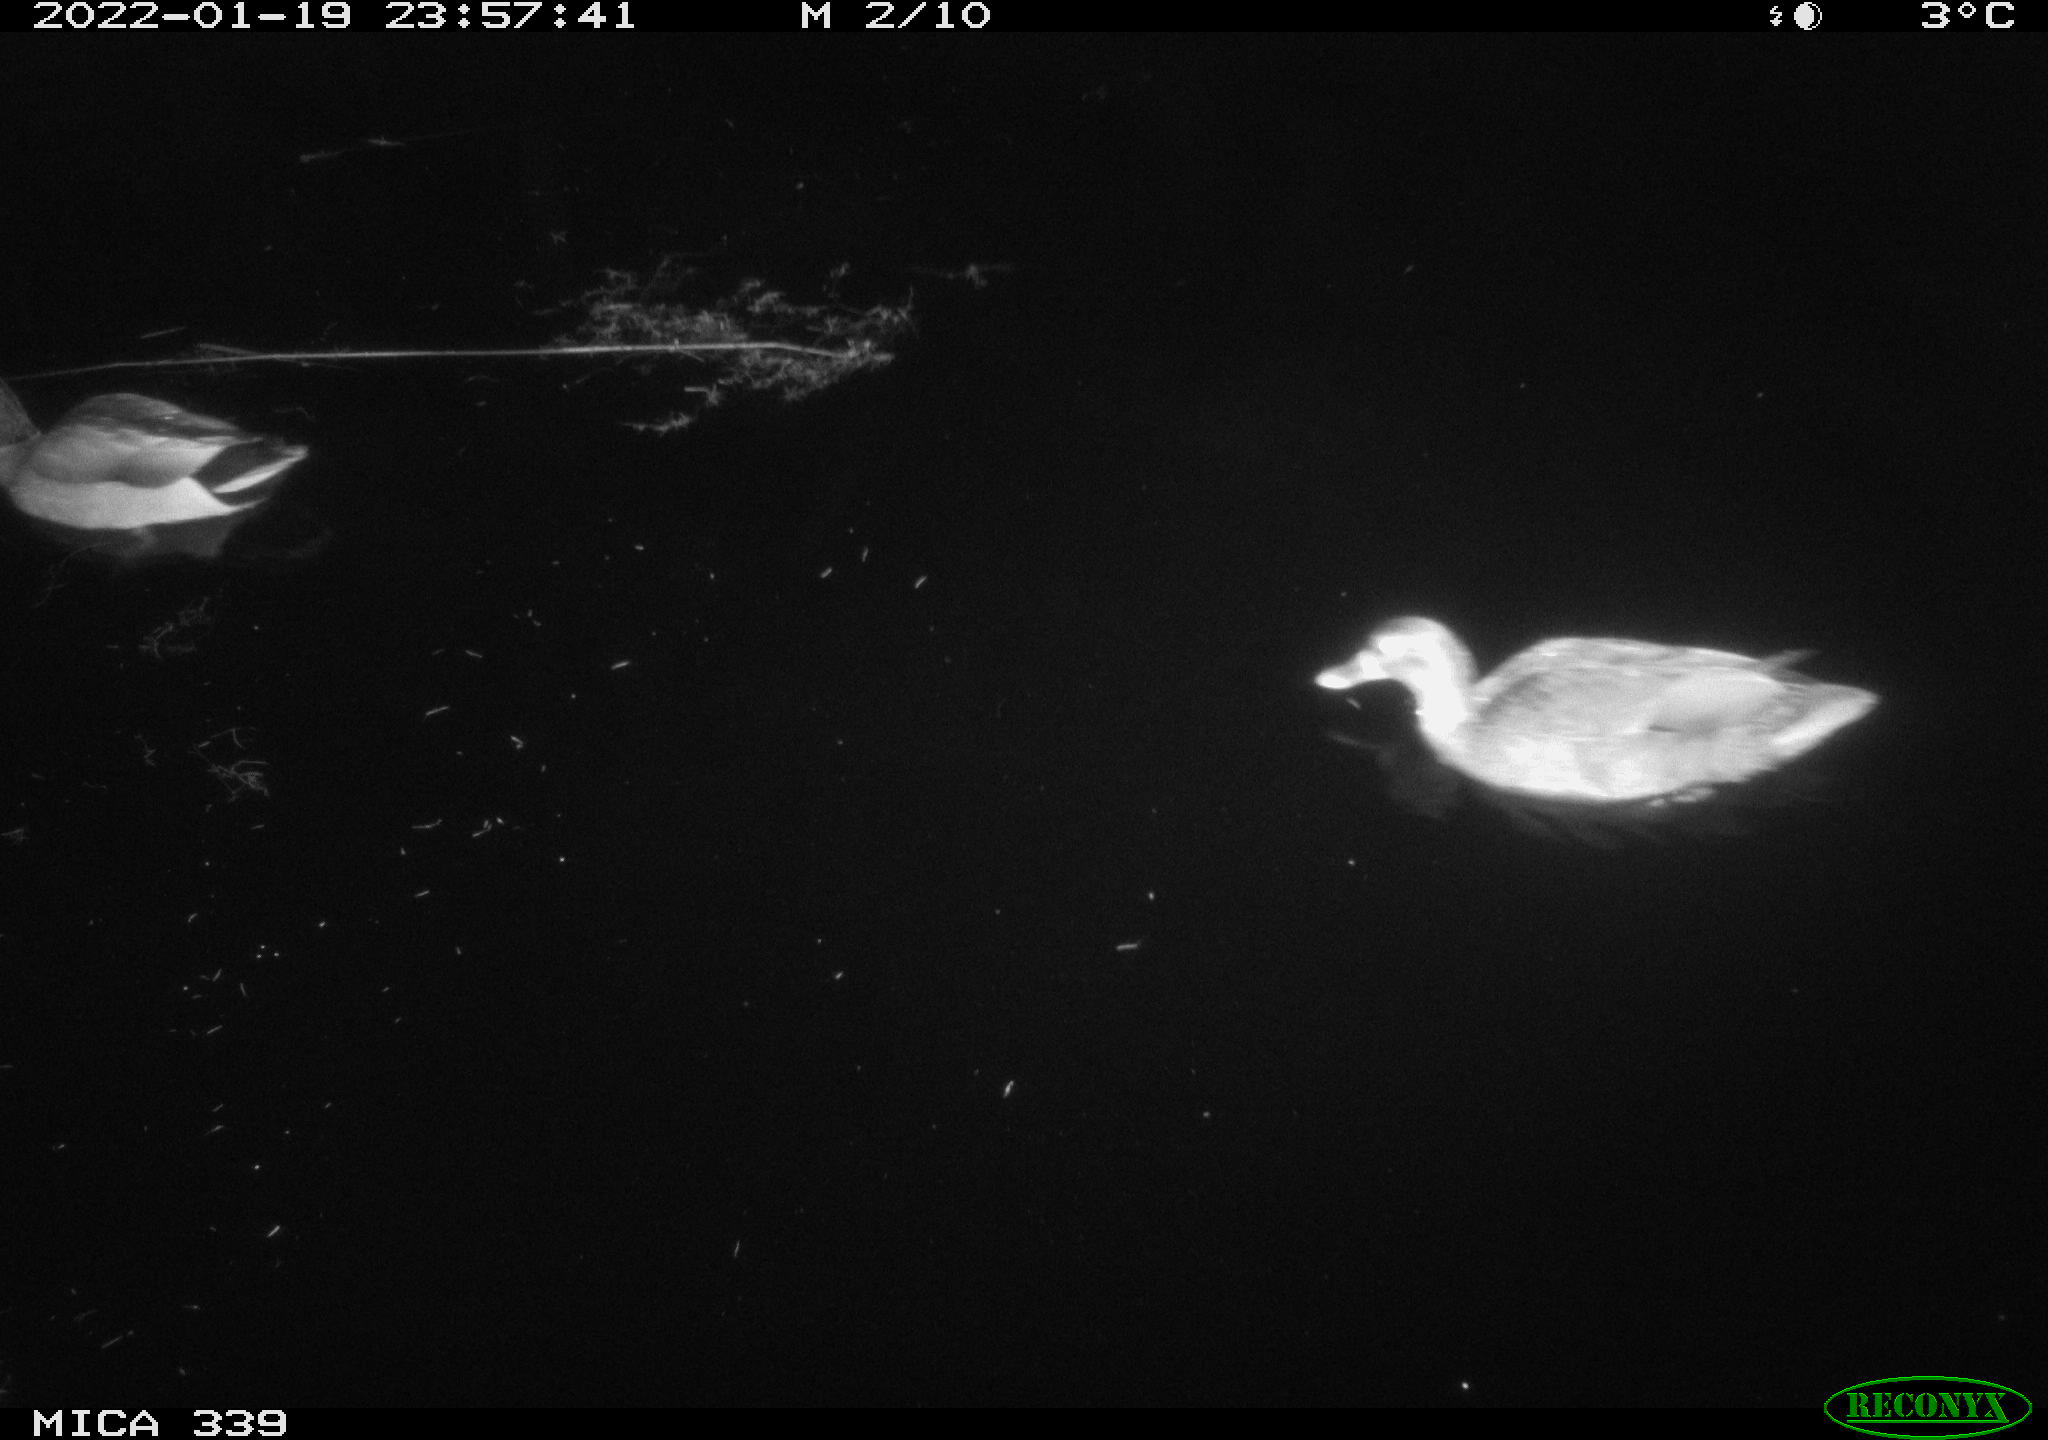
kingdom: Animalia
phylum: Chordata
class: Aves
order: Anseriformes
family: Anatidae
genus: Anas
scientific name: Anas platyrhynchos
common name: Mallard
